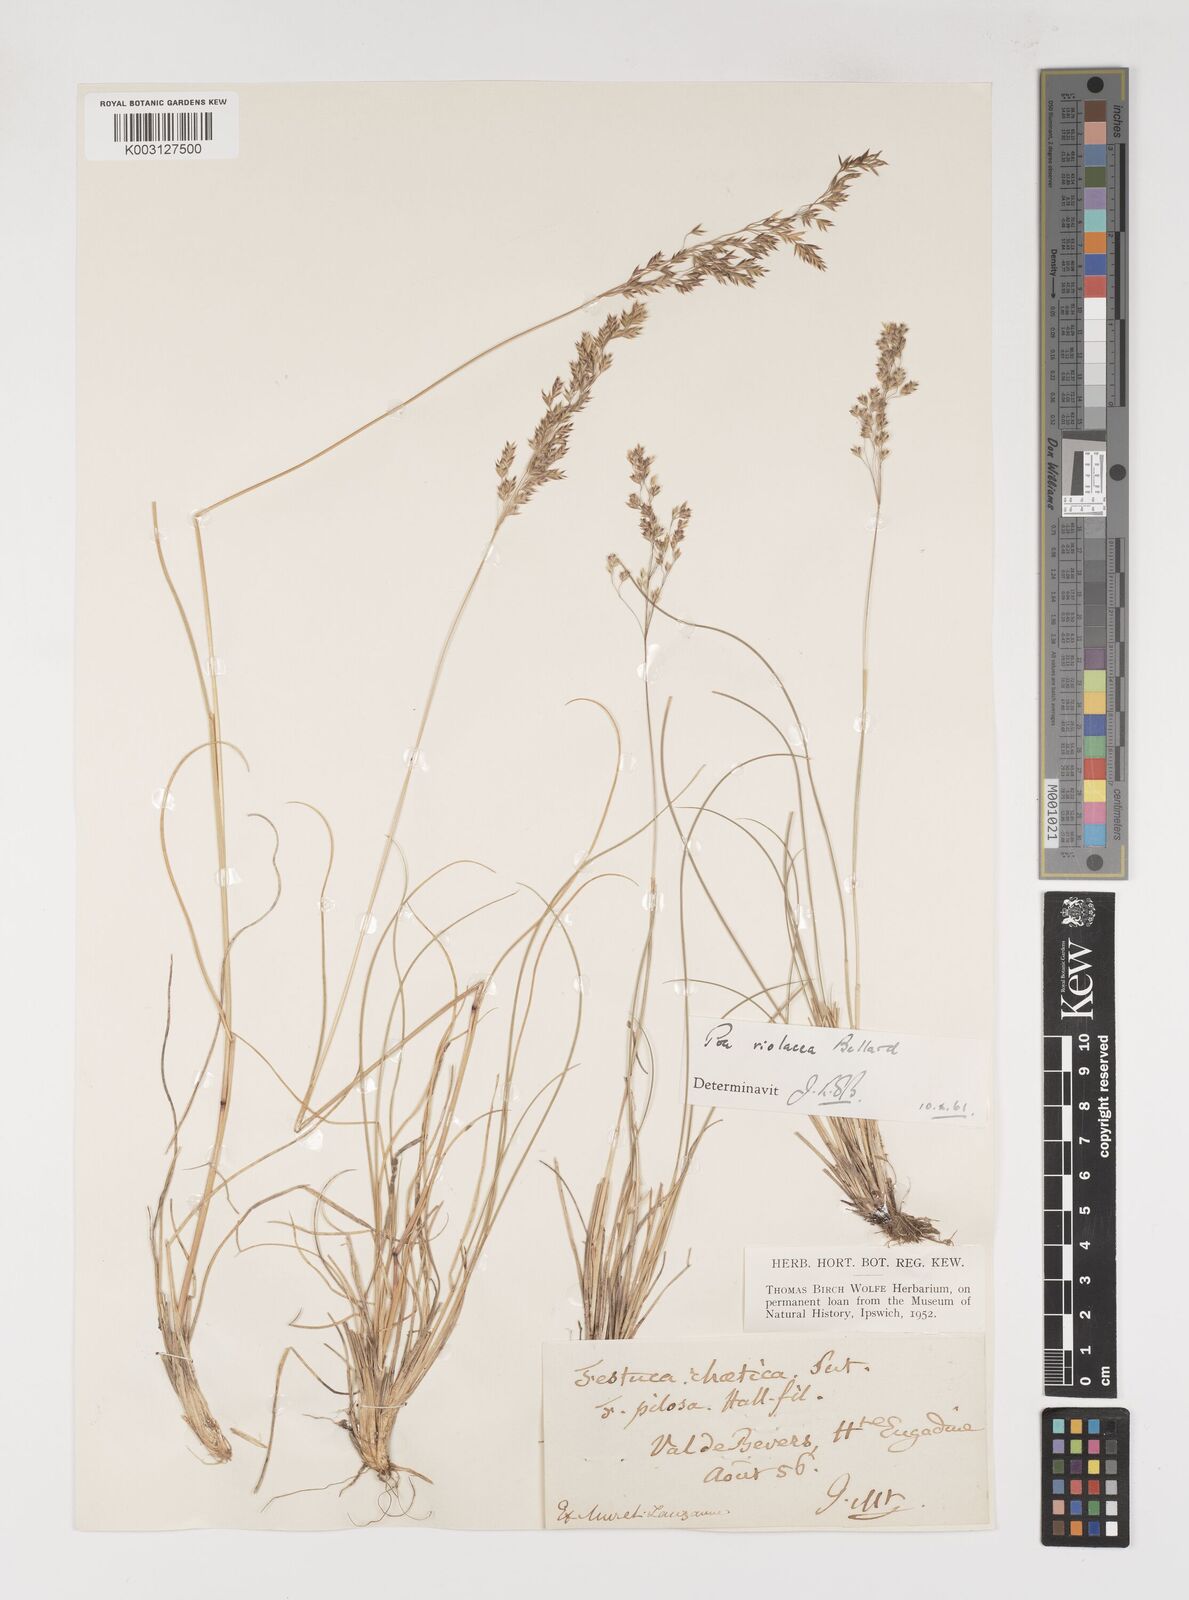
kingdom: Plantae
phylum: Tracheophyta
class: Liliopsida
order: Poales
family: Poaceae
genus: Bellardiochloa
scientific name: Bellardiochloa variegata
